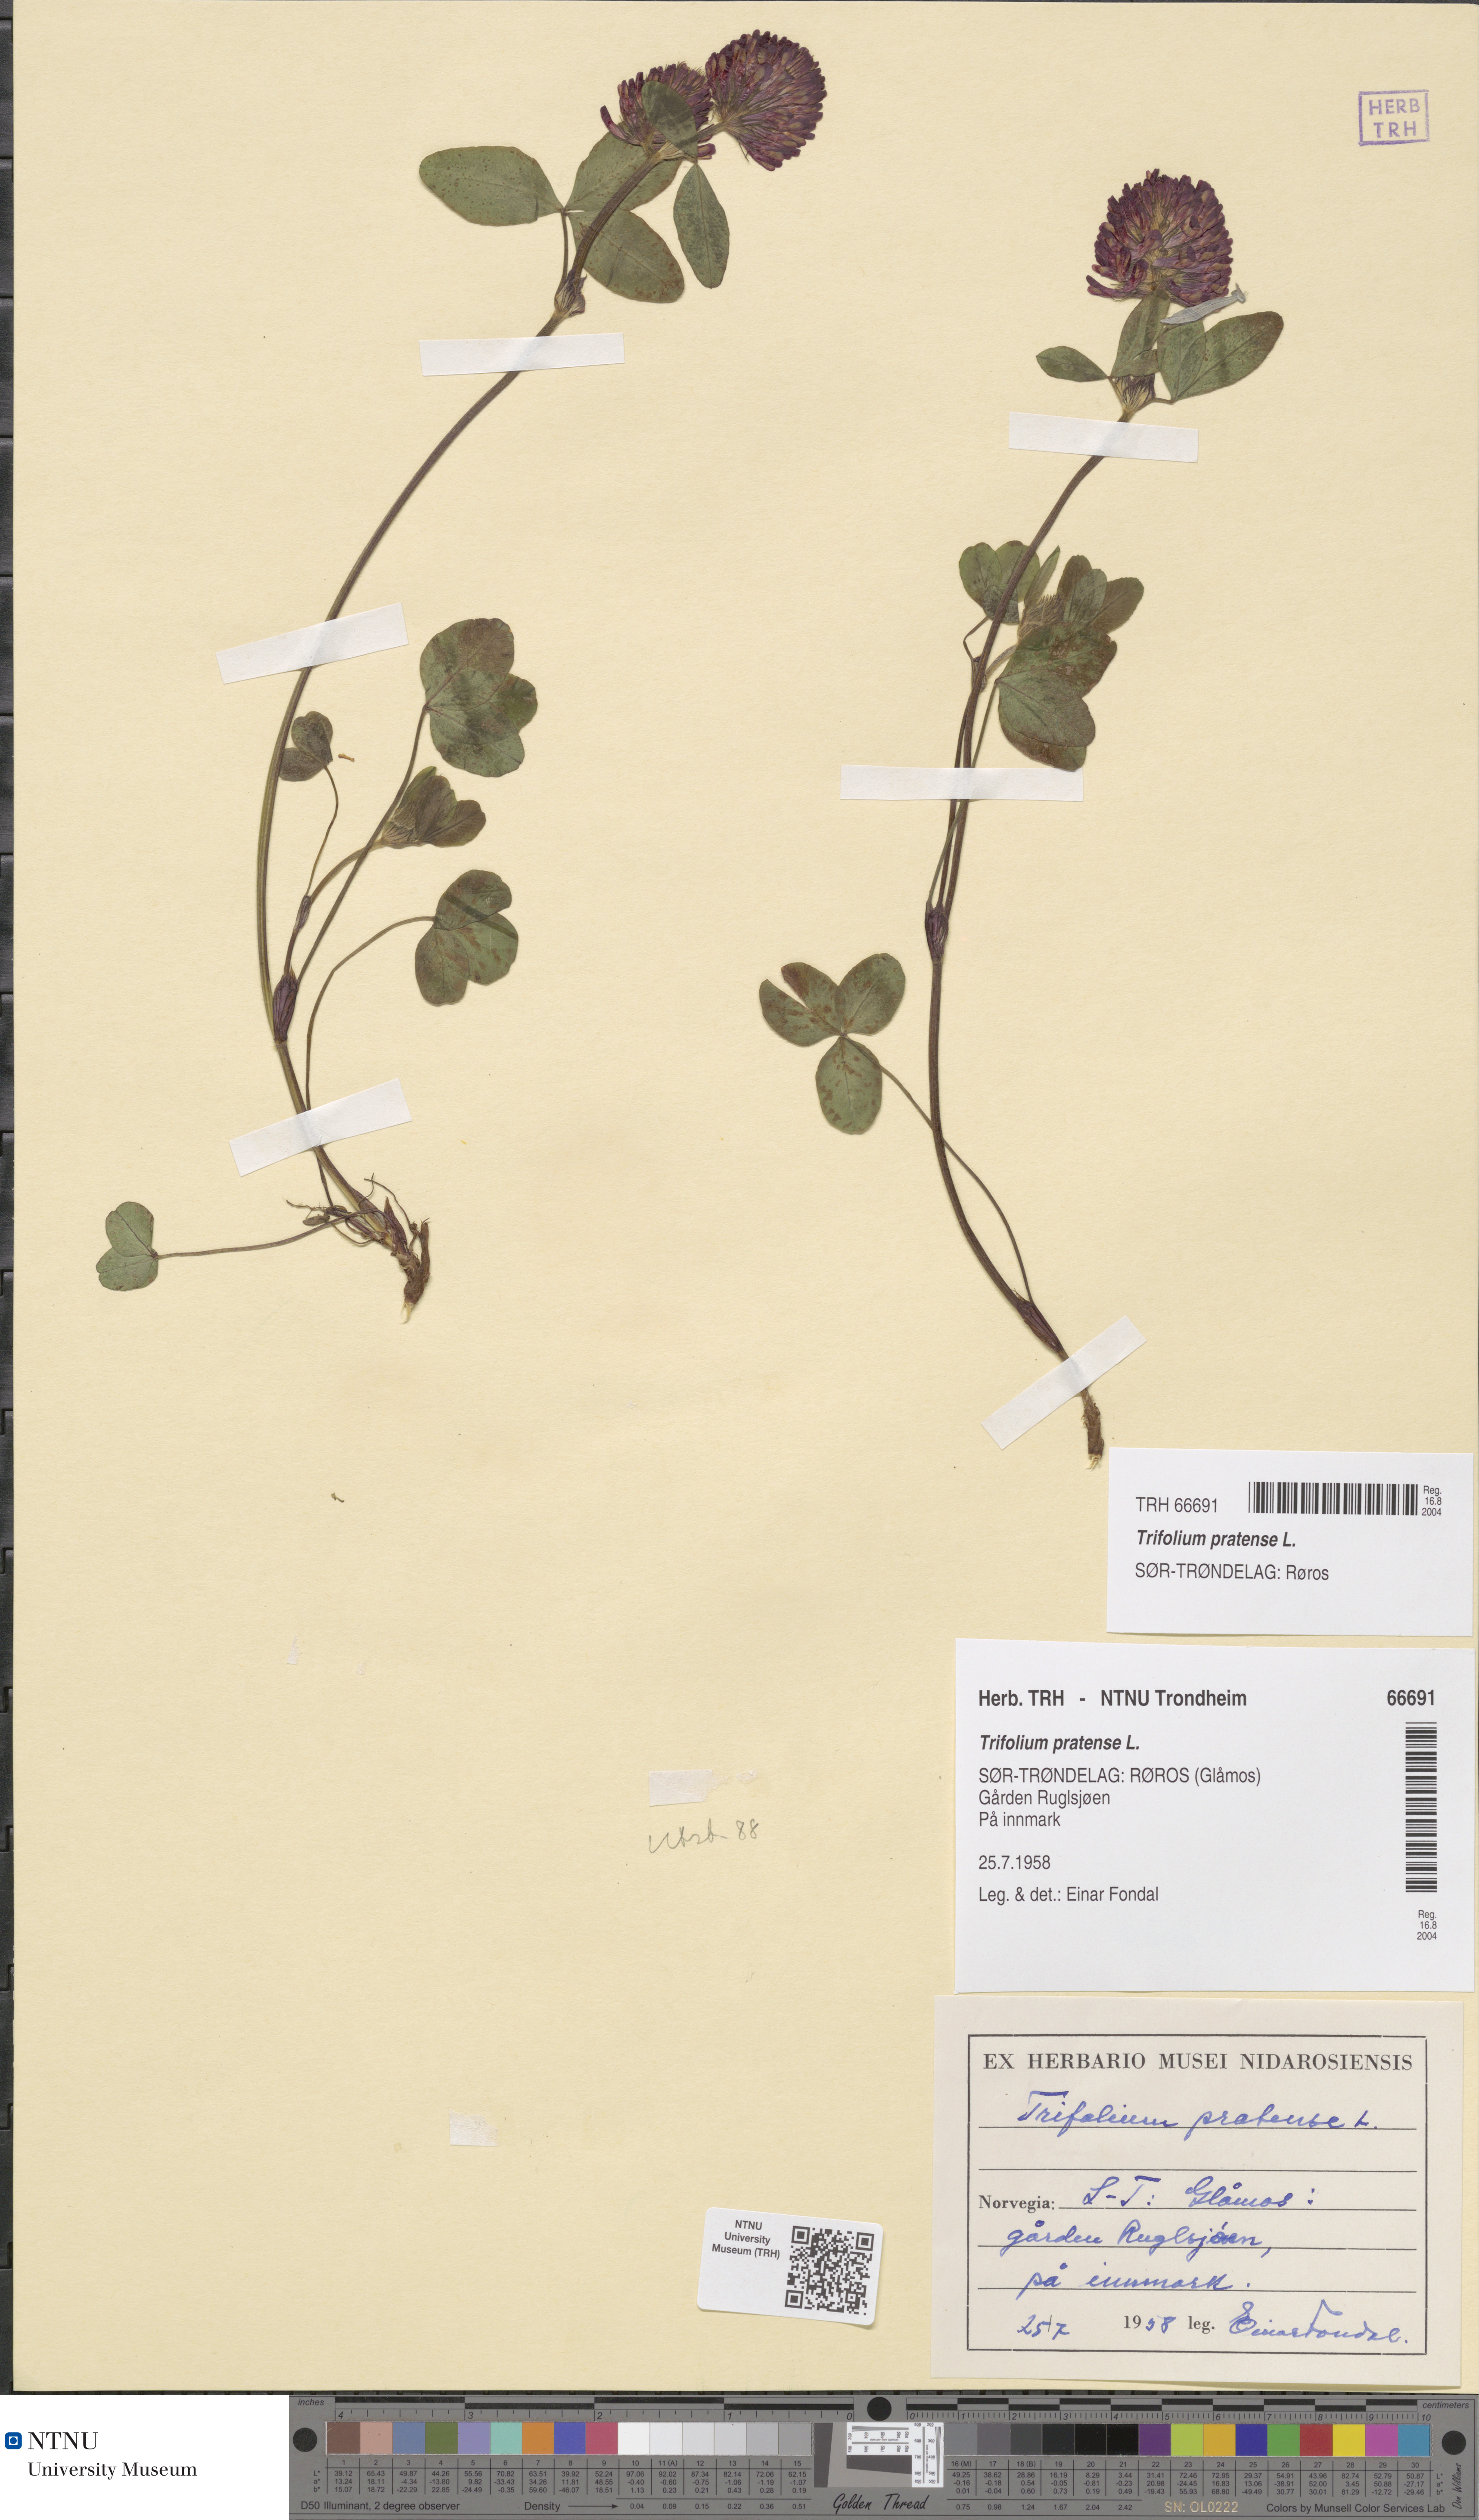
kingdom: Plantae
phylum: Tracheophyta
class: Magnoliopsida
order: Fabales
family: Fabaceae
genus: Trifolium
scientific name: Trifolium pratense
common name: Red clover
